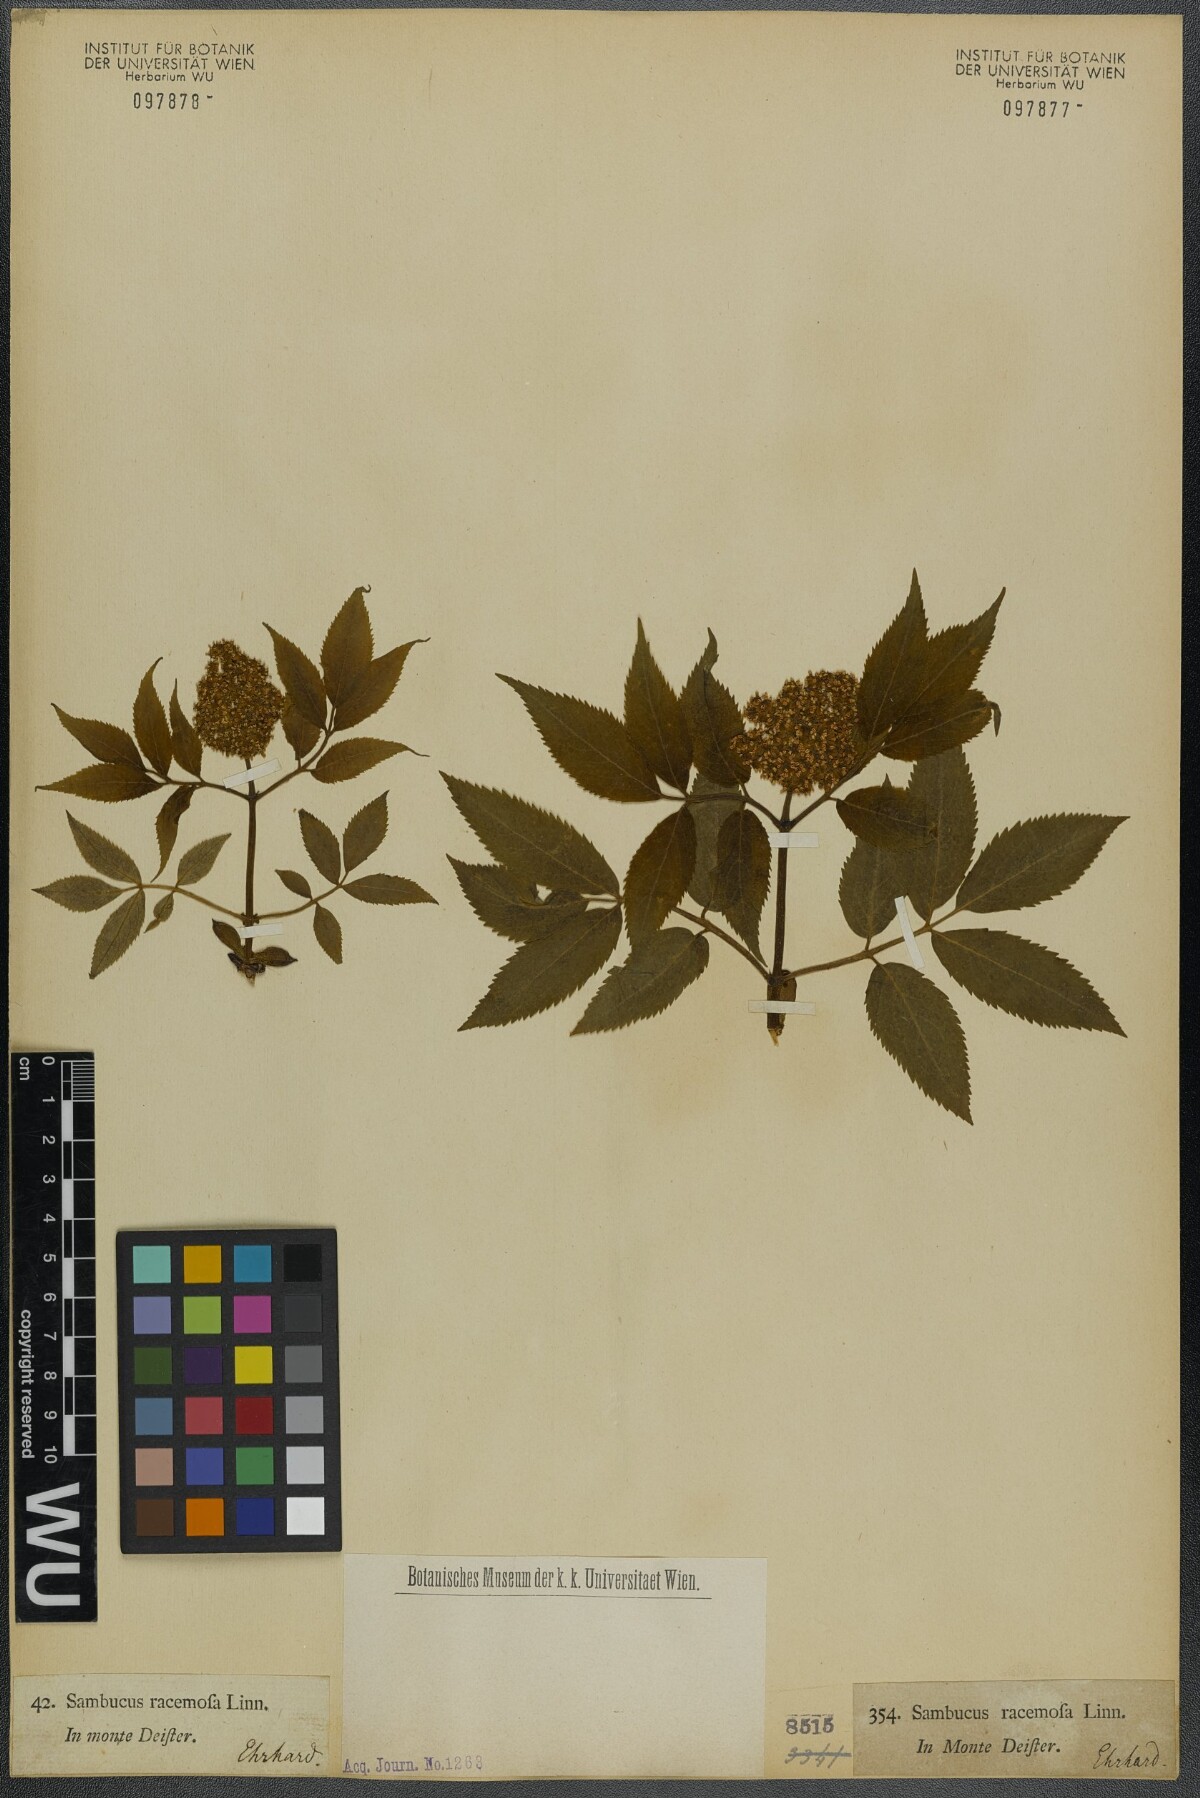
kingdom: Plantae
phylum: Tracheophyta
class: Magnoliopsida
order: Dipsacales
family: Viburnaceae
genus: Sambucus
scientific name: Sambucus racemosa
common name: Red-berried elder
